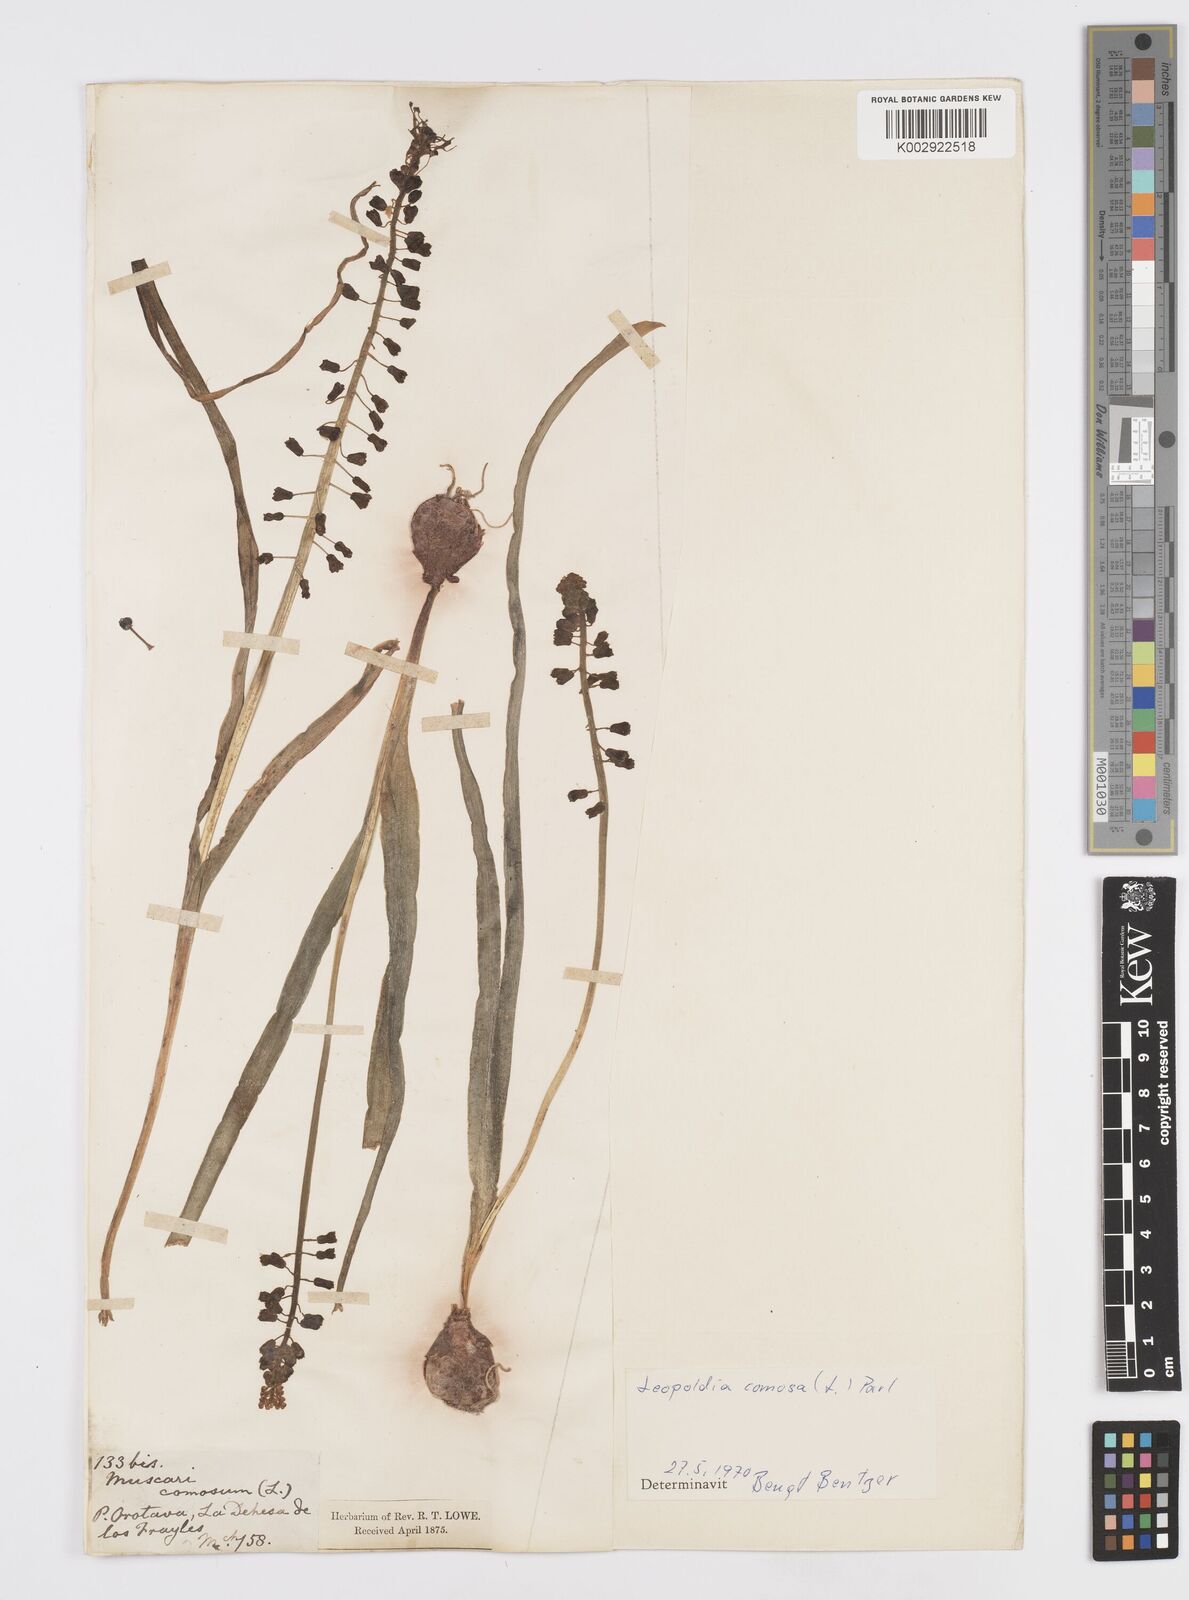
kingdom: Plantae
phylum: Tracheophyta
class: Liliopsida
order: Asparagales
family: Asparagaceae
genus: Muscari
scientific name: Muscari comosum
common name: Tassel hyacinth
